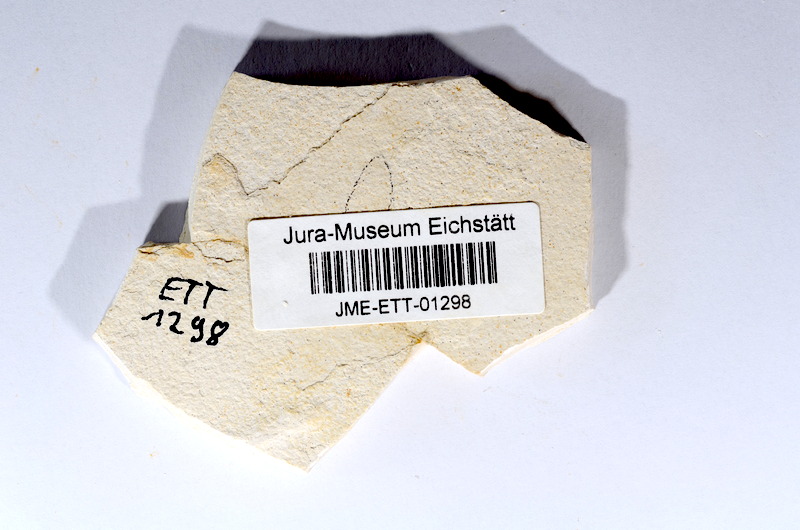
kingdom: Animalia
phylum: Chordata
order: Salmoniformes
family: Orthogonikleithridae
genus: Orthogonikleithrus
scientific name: Orthogonikleithrus hoelli
